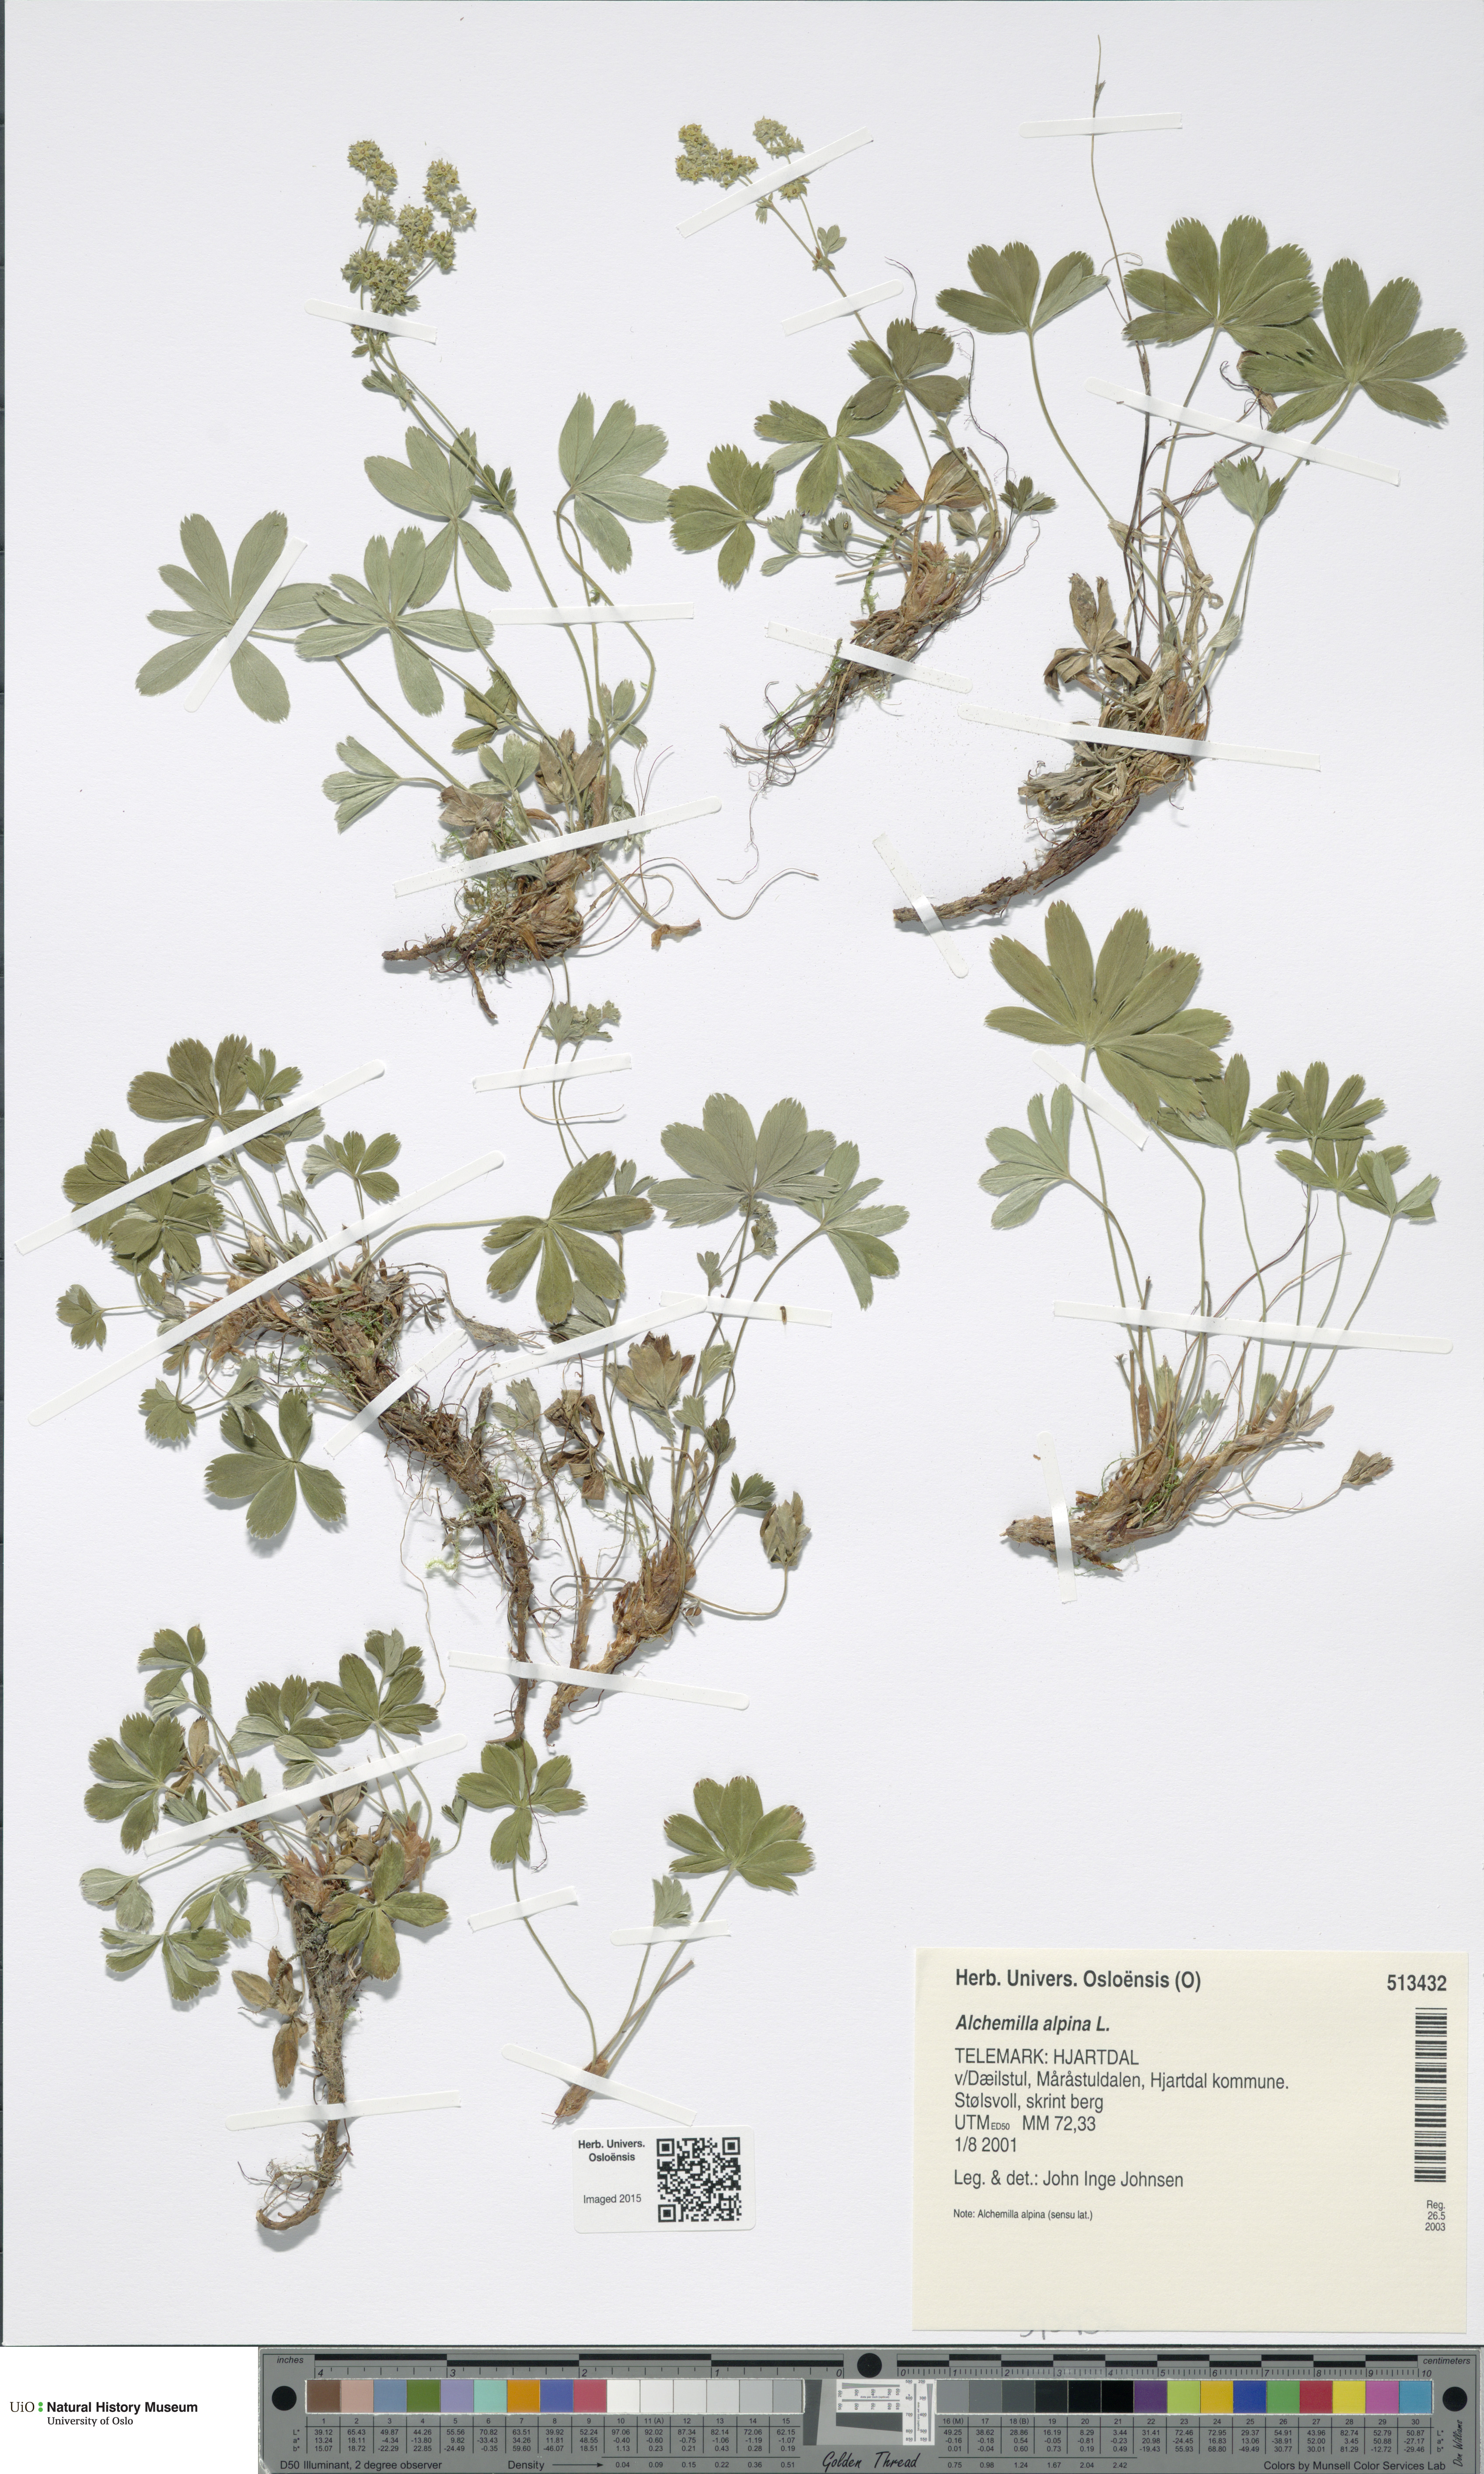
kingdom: Plantae
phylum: Tracheophyta
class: Magnoliopsida
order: Rosales
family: Rosaceae
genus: Alchemilla
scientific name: Alchemilla alpina
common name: Alpine lady's-mantle
